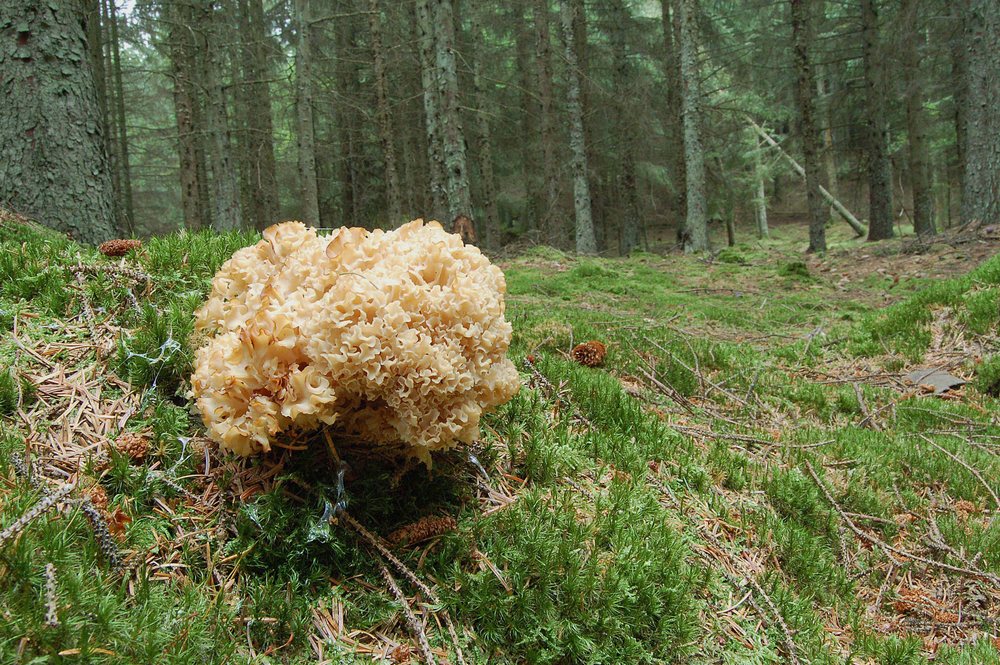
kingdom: Fungi
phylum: Basidiomycota
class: Agaricomycetes
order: Polyporales
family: Sparassidaceae
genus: Sparassis
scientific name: Sparassis crispa
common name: kruset blomkålssvamp
